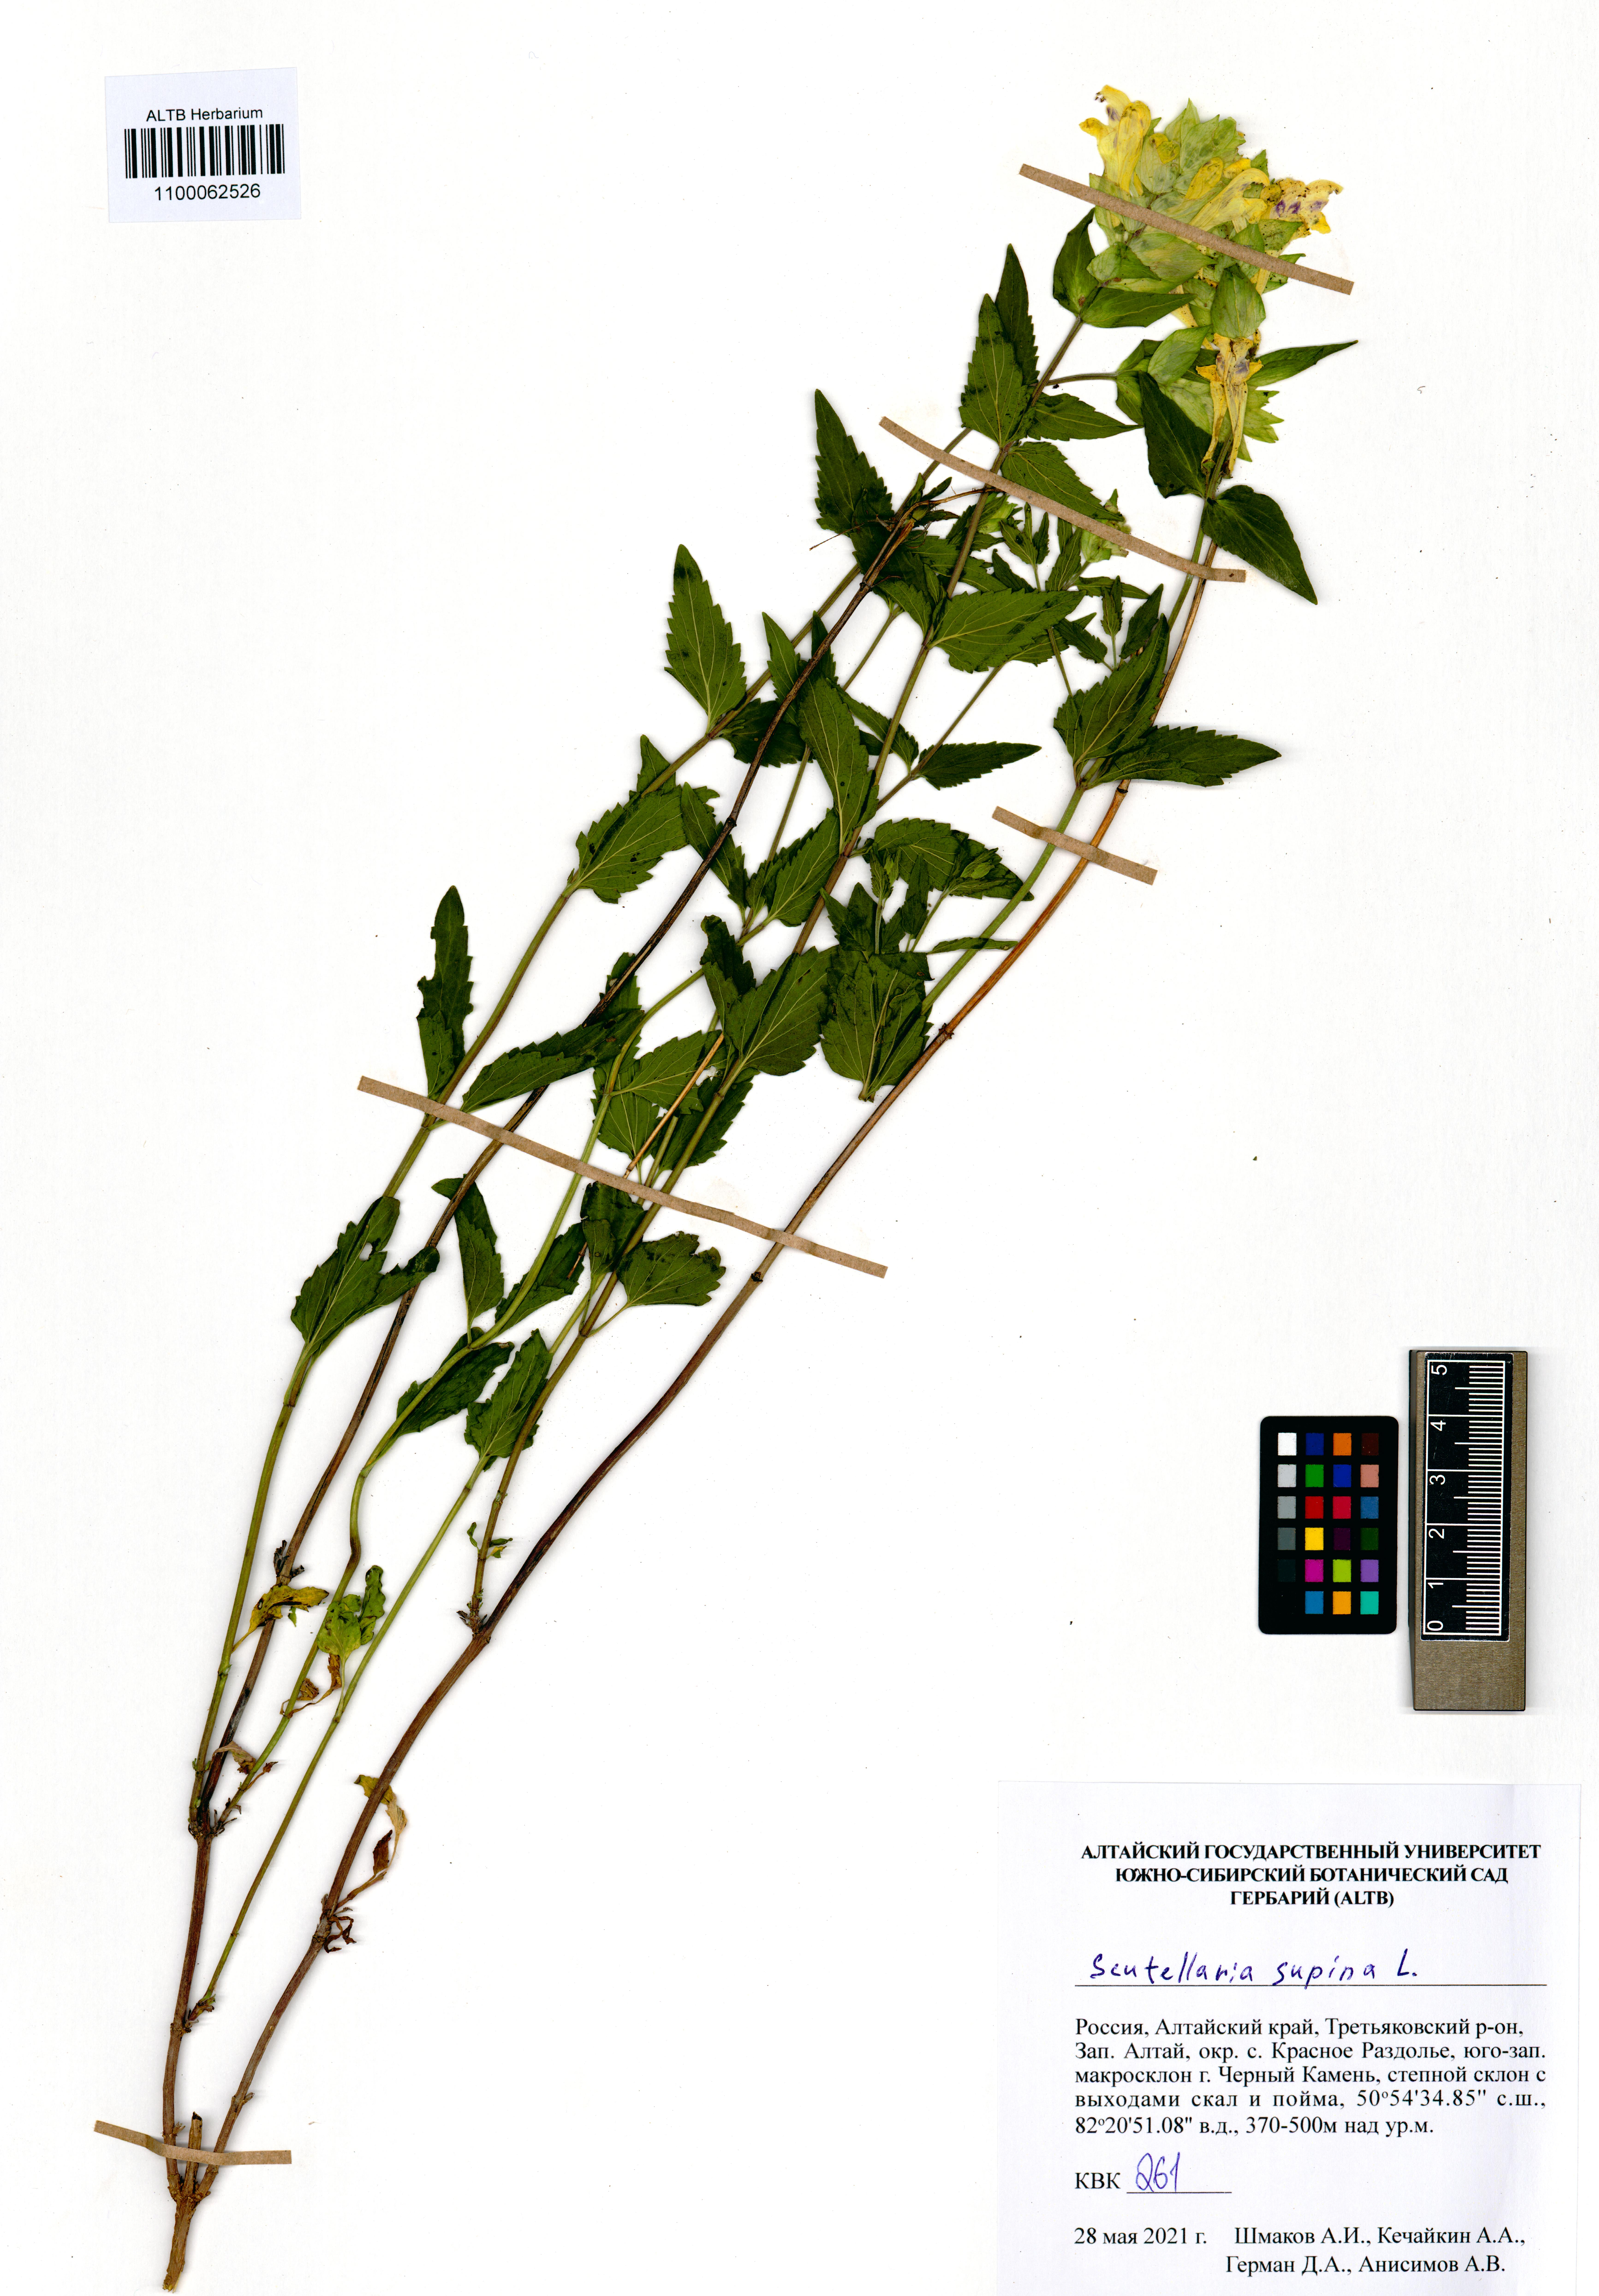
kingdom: Plantae
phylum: Tracheophyta
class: Magnoliopsida
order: Lamiales
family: Lamiaceae
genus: Scutellaria
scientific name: Scutellaria supina
